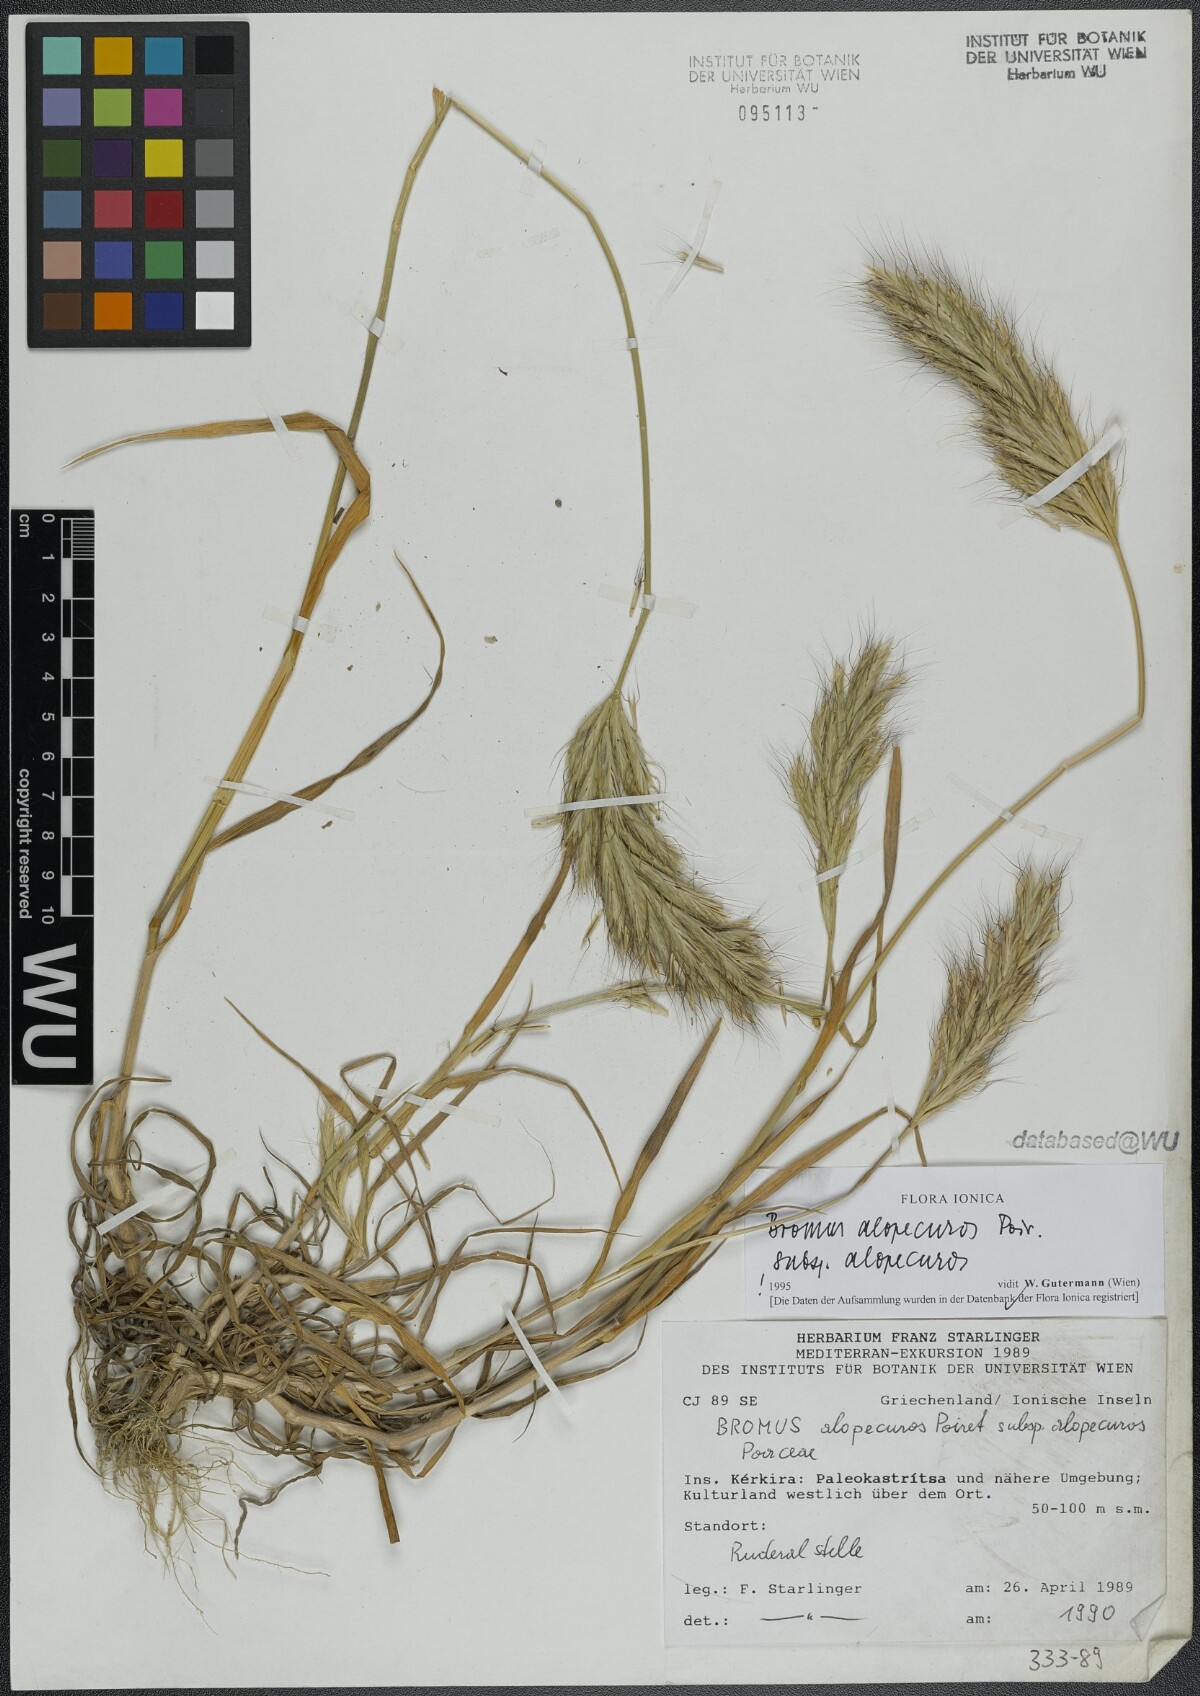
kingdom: Plantae
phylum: Tracheophyta
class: Liliopsida
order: Poales
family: Poaceae
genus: Bromus
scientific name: Bromus alopecuros
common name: Weedy brome
